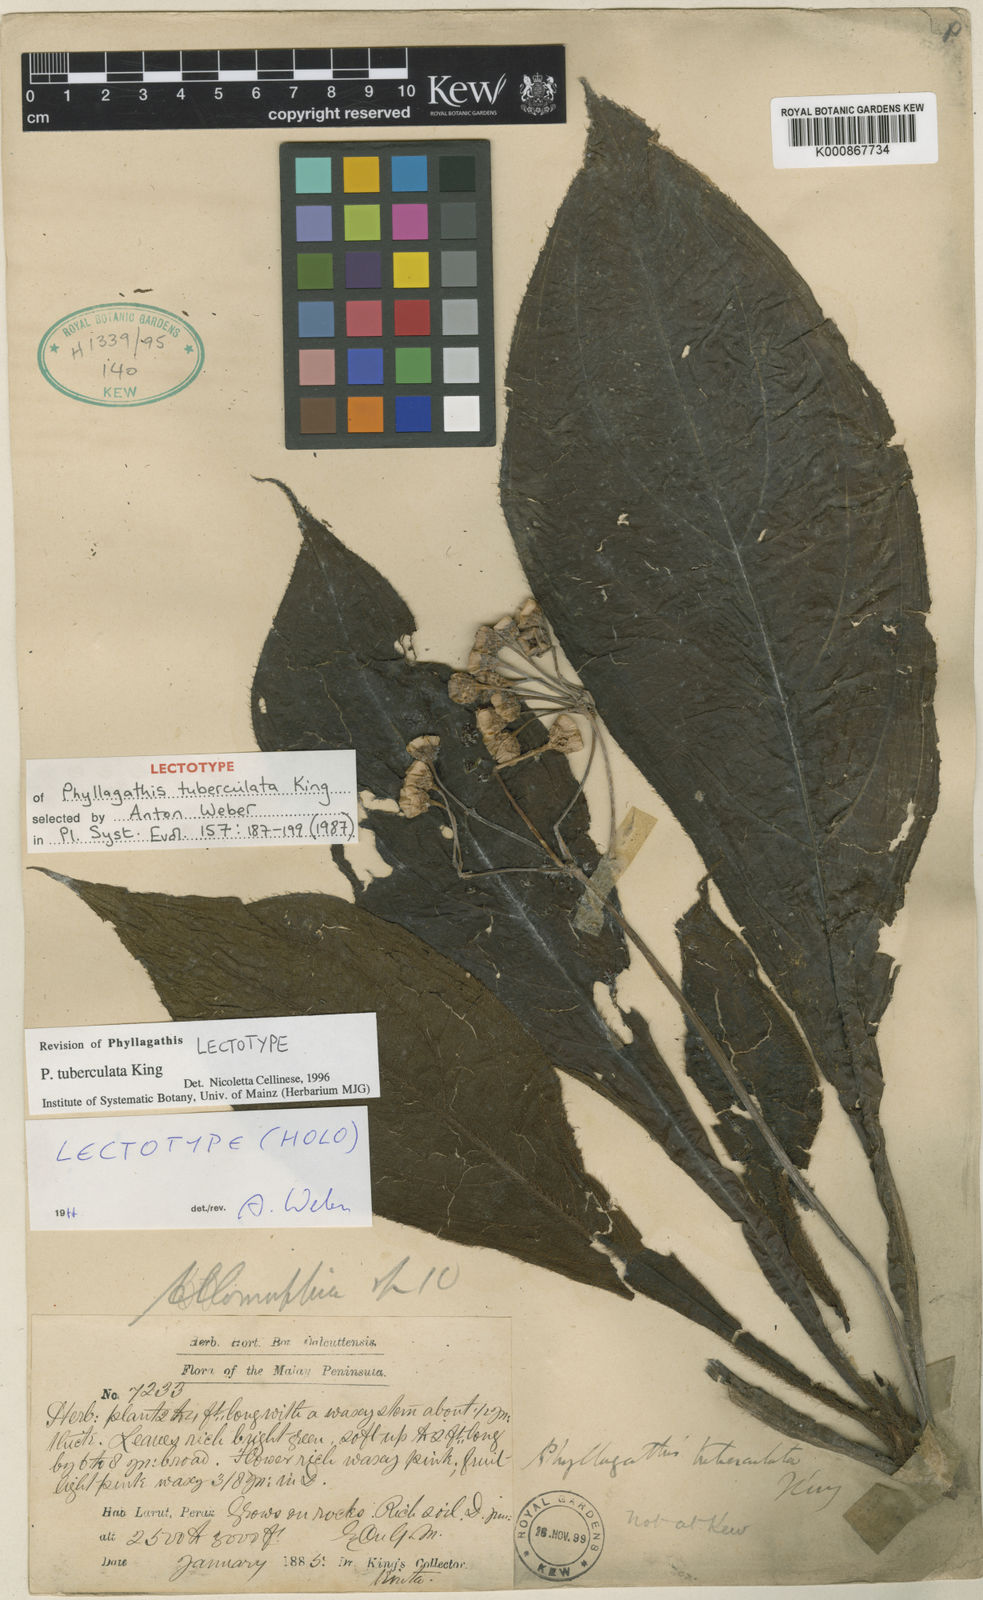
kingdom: Plantae
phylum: Tracheophyta
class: Magnoliopsida
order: Myrtales
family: Melastomataceae
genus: Phyllagathis
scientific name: Phyllagathis tuberculata
